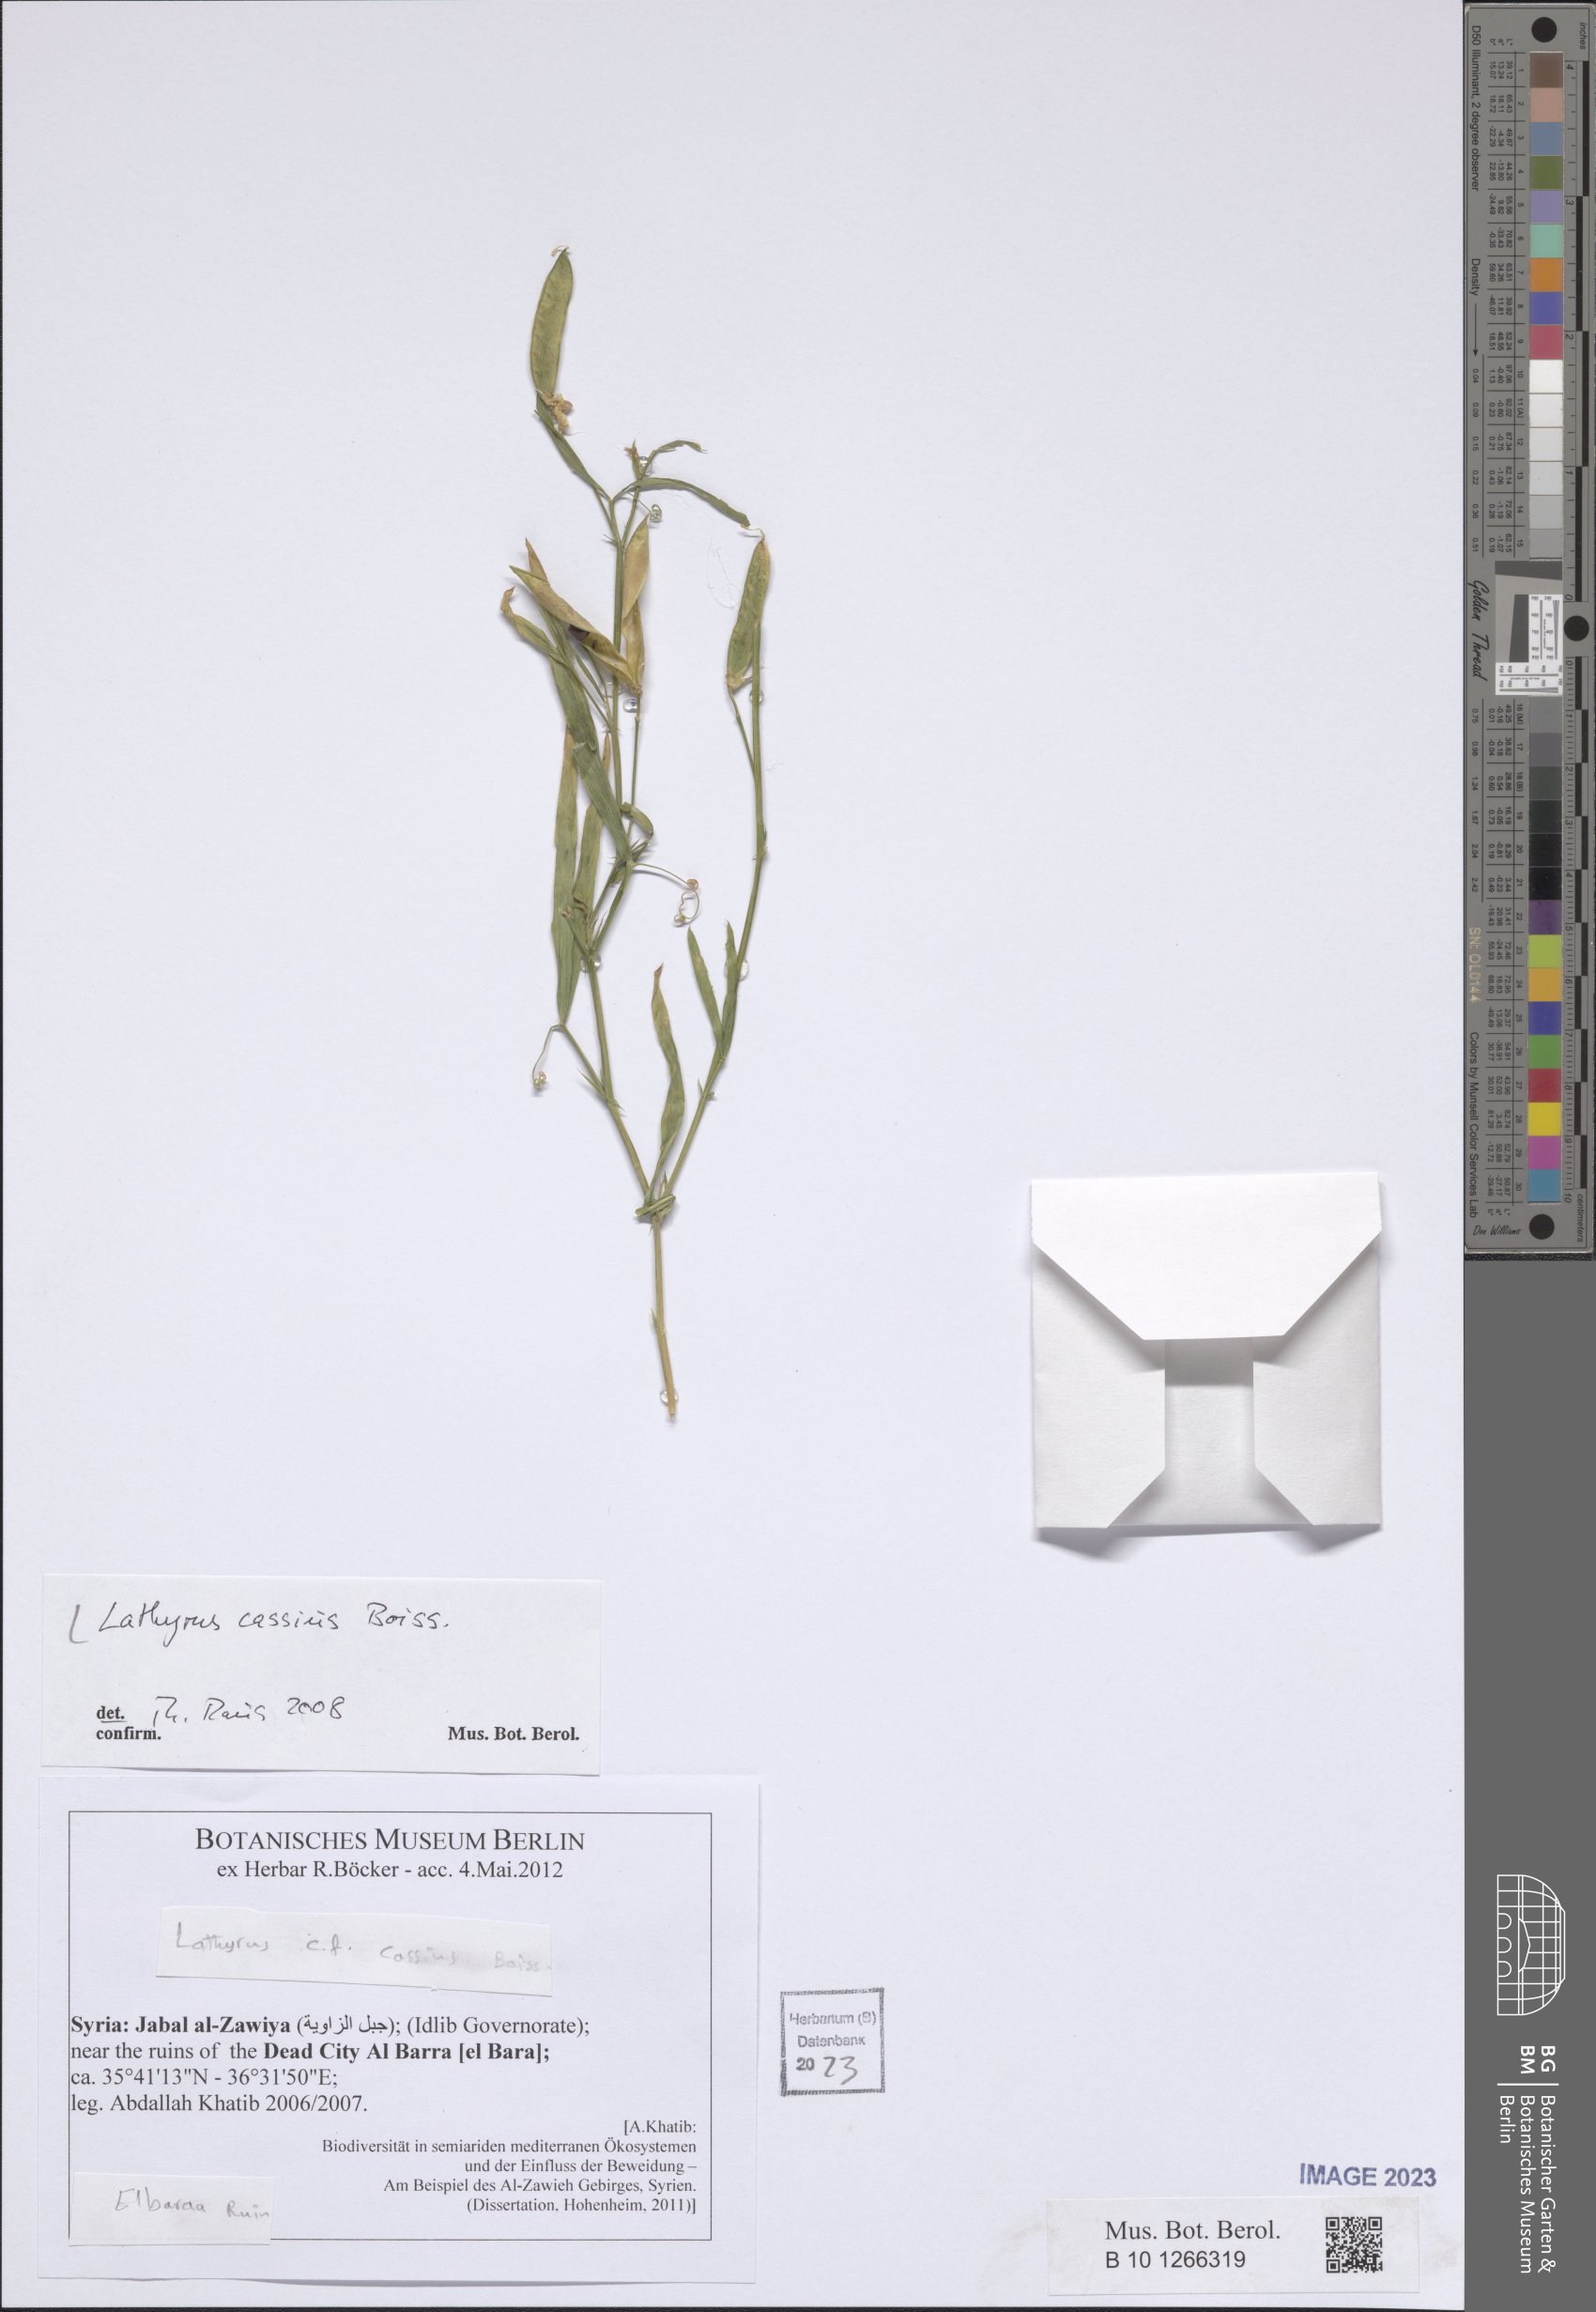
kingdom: Plantae
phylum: Tracheophyta
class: Magnoliopsida
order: Fabales
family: Fabaceae
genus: Lathyrus
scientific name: Lathyrus cassius
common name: Sweet pea
